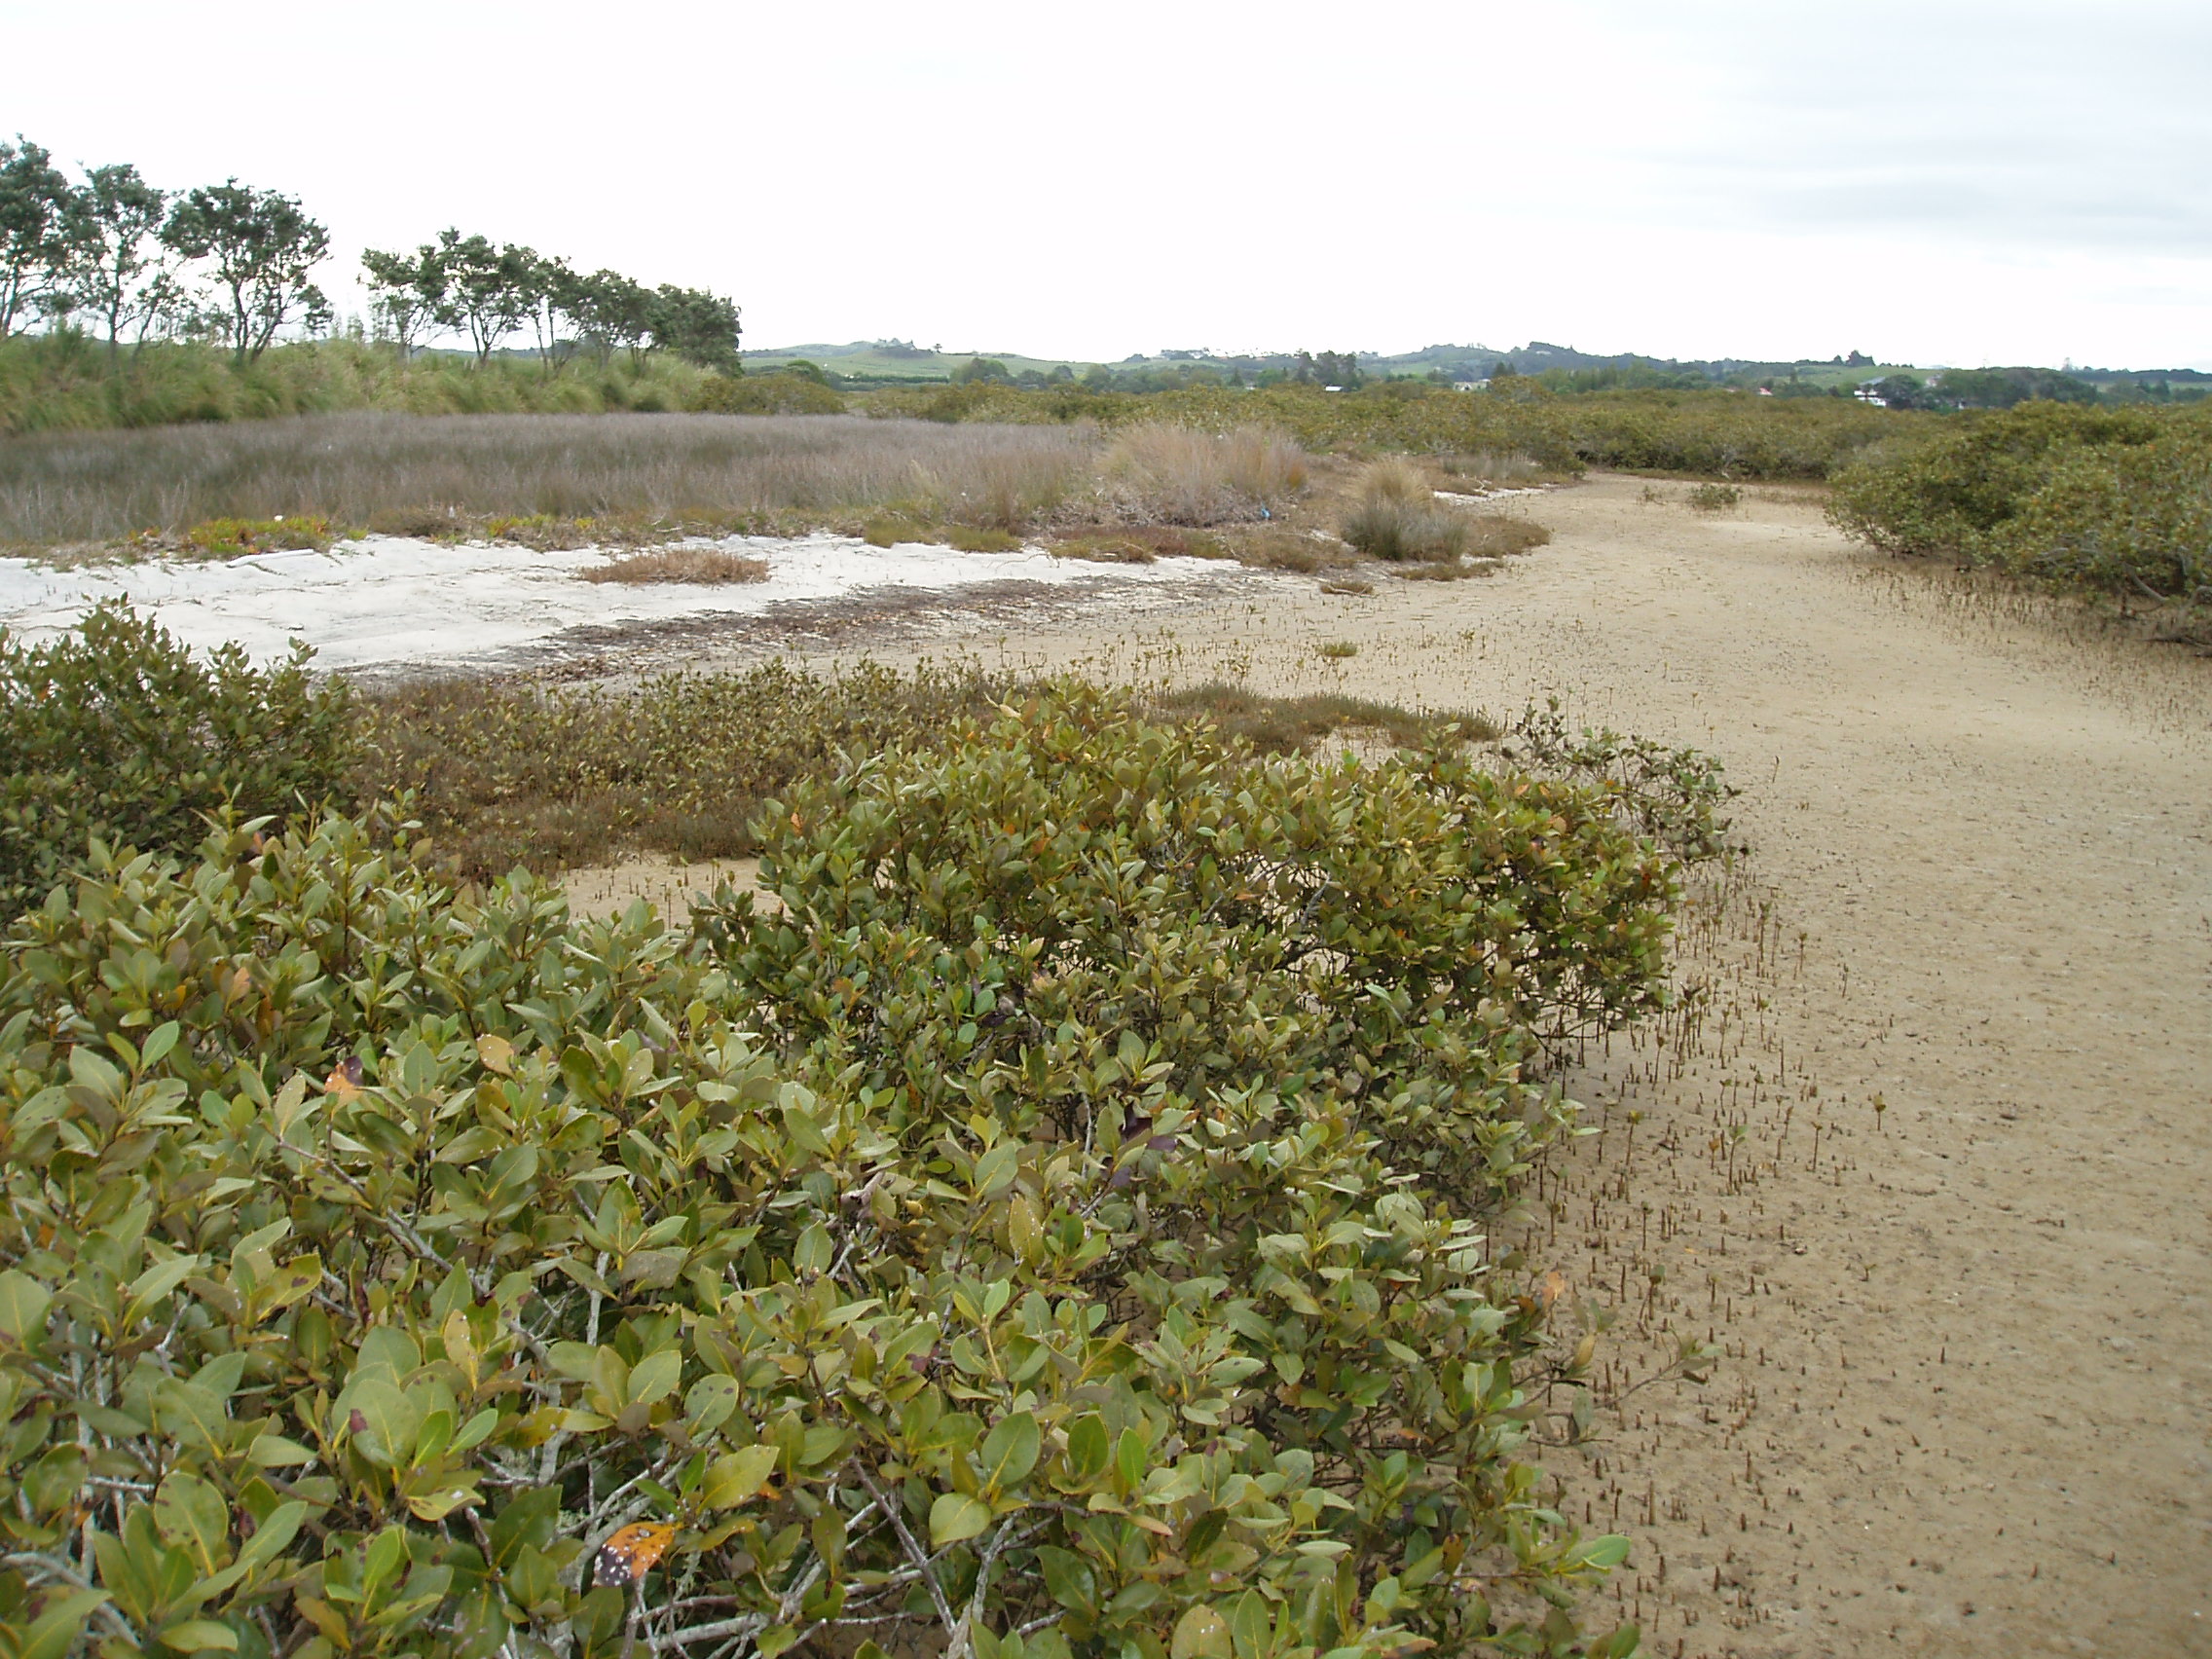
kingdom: Plantae
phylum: Tracheophyta
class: Magnoliopsida
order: Caryophyllales
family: Aizoaceae
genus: Carpobrotus
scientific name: Carpobrotus edulis
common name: Hottentot-fig
